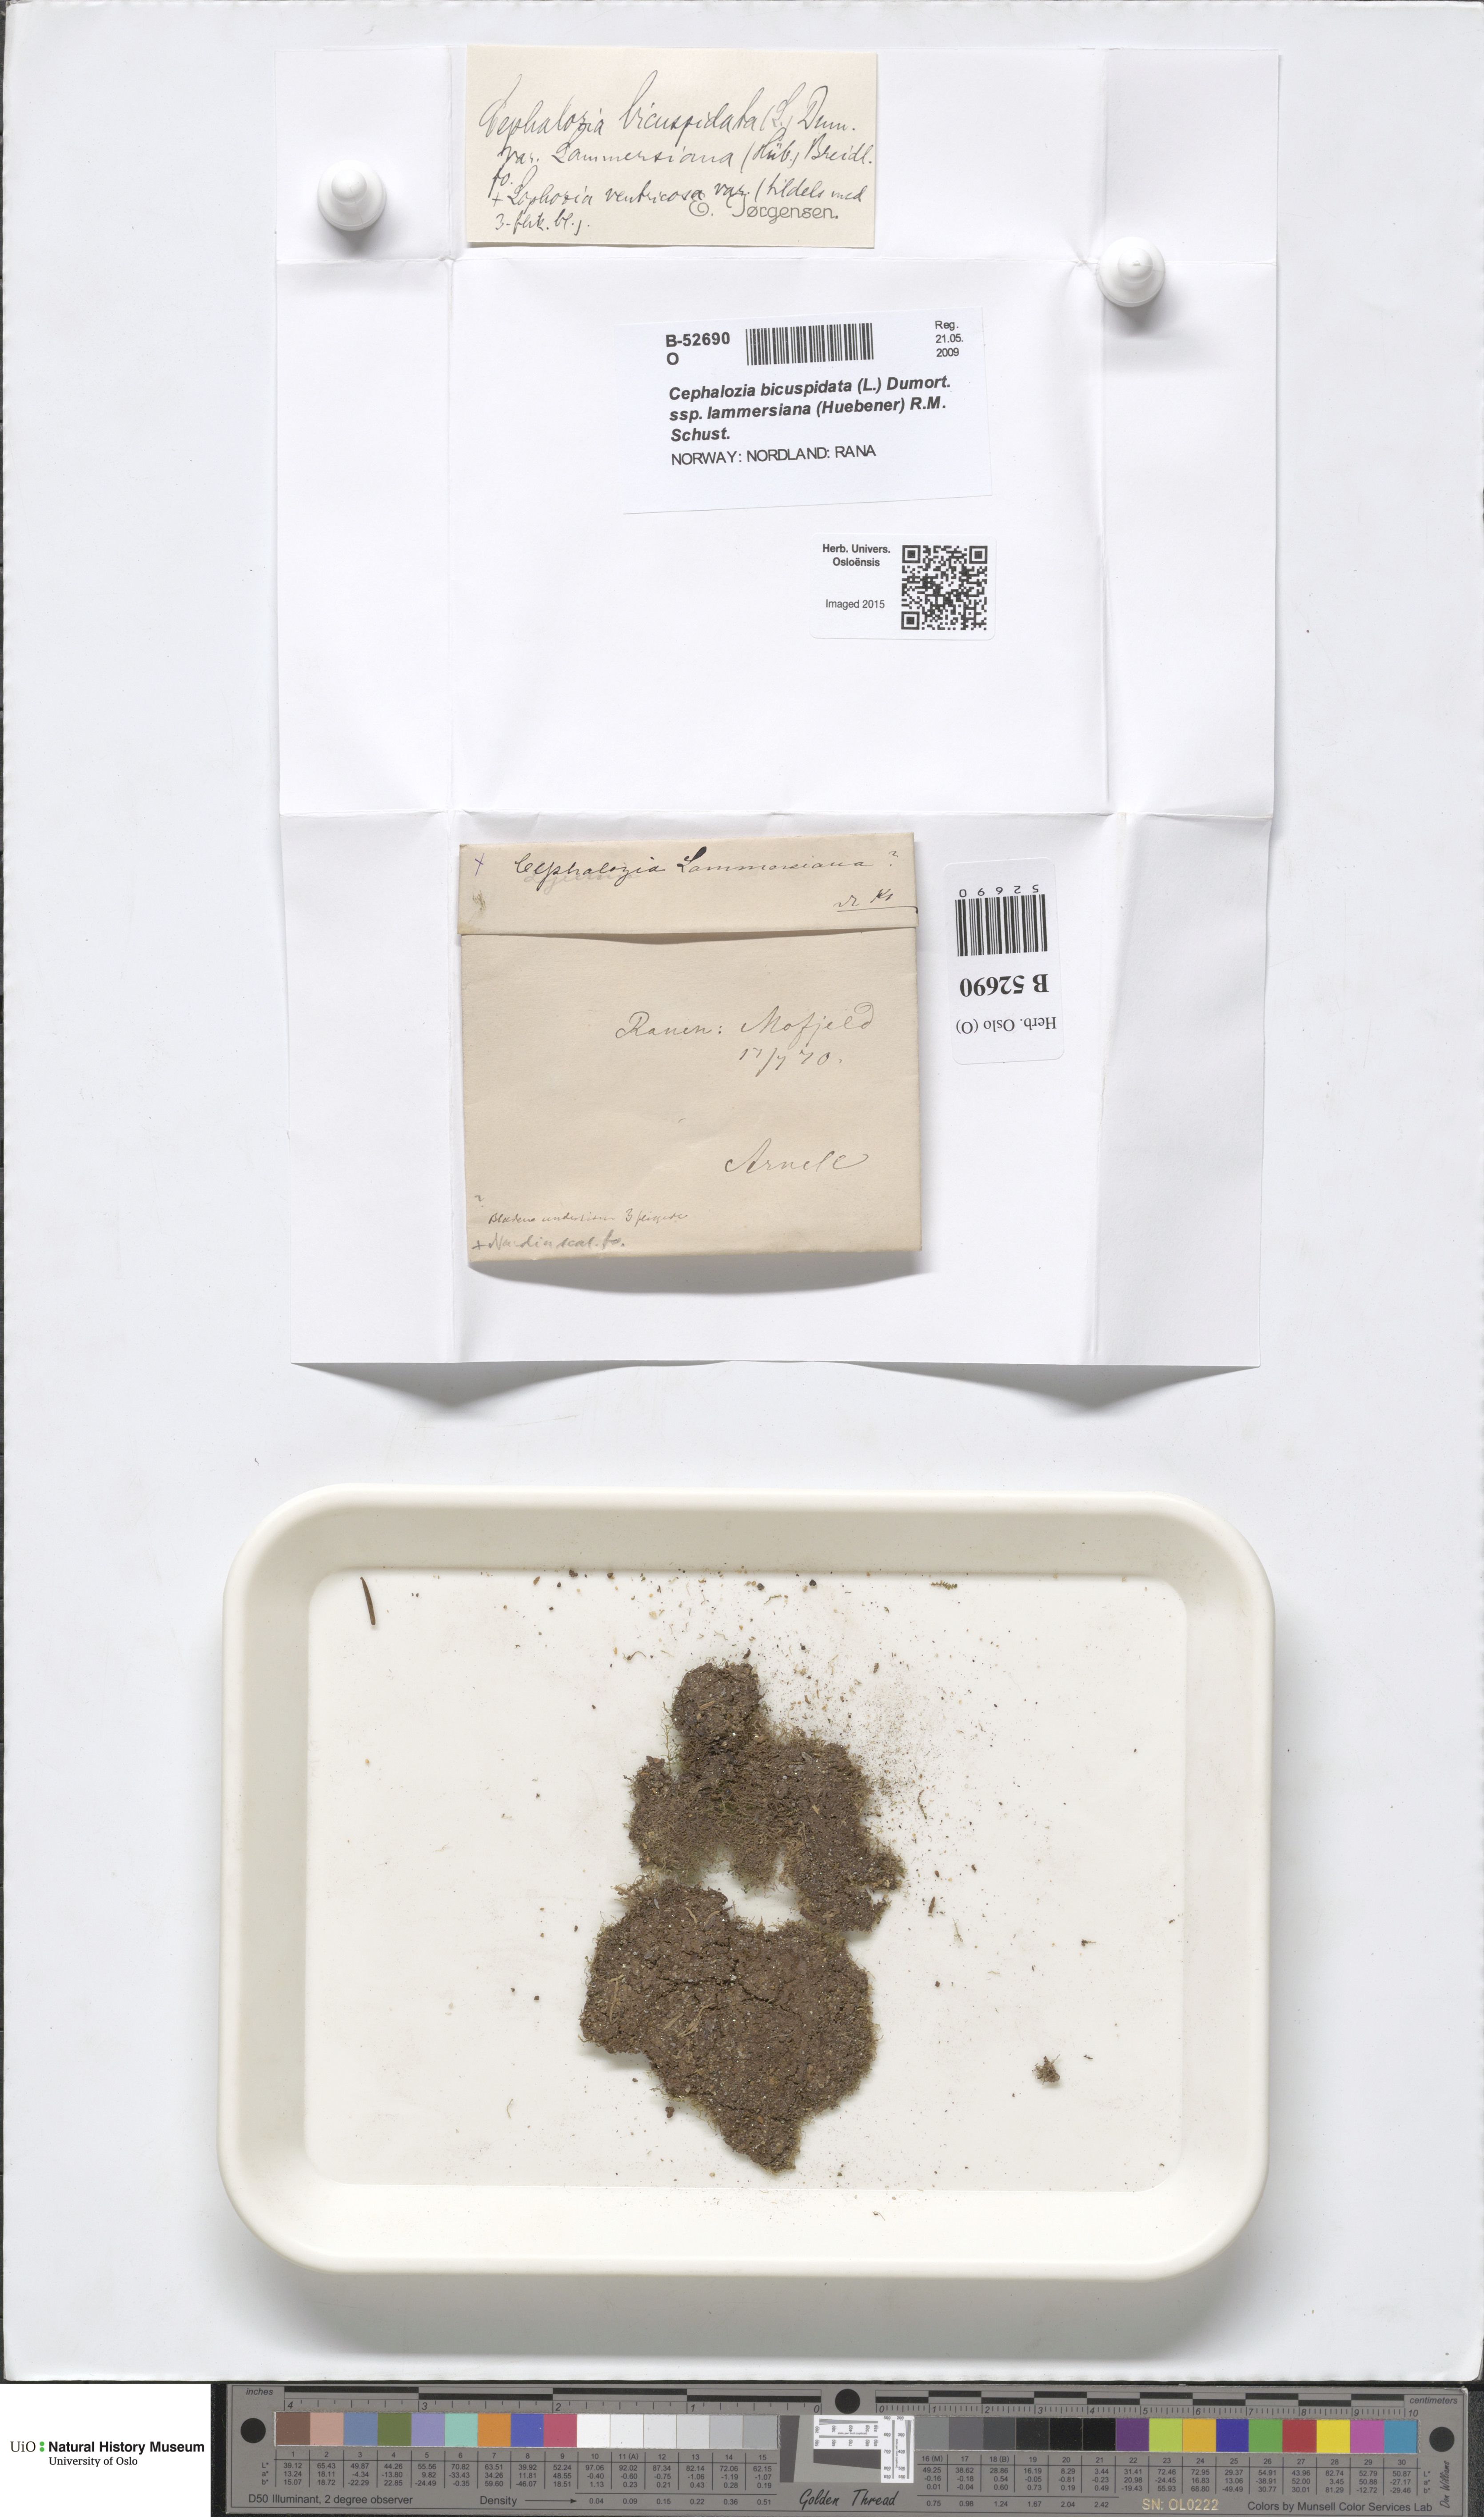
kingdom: Plantae
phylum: Marchantiophyta
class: Jungermanniopsida
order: Jungermanniales
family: Cephaloziaceae
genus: Cephalozia
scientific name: Cephalozia bicuspidata
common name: Two-horned pincerwort
